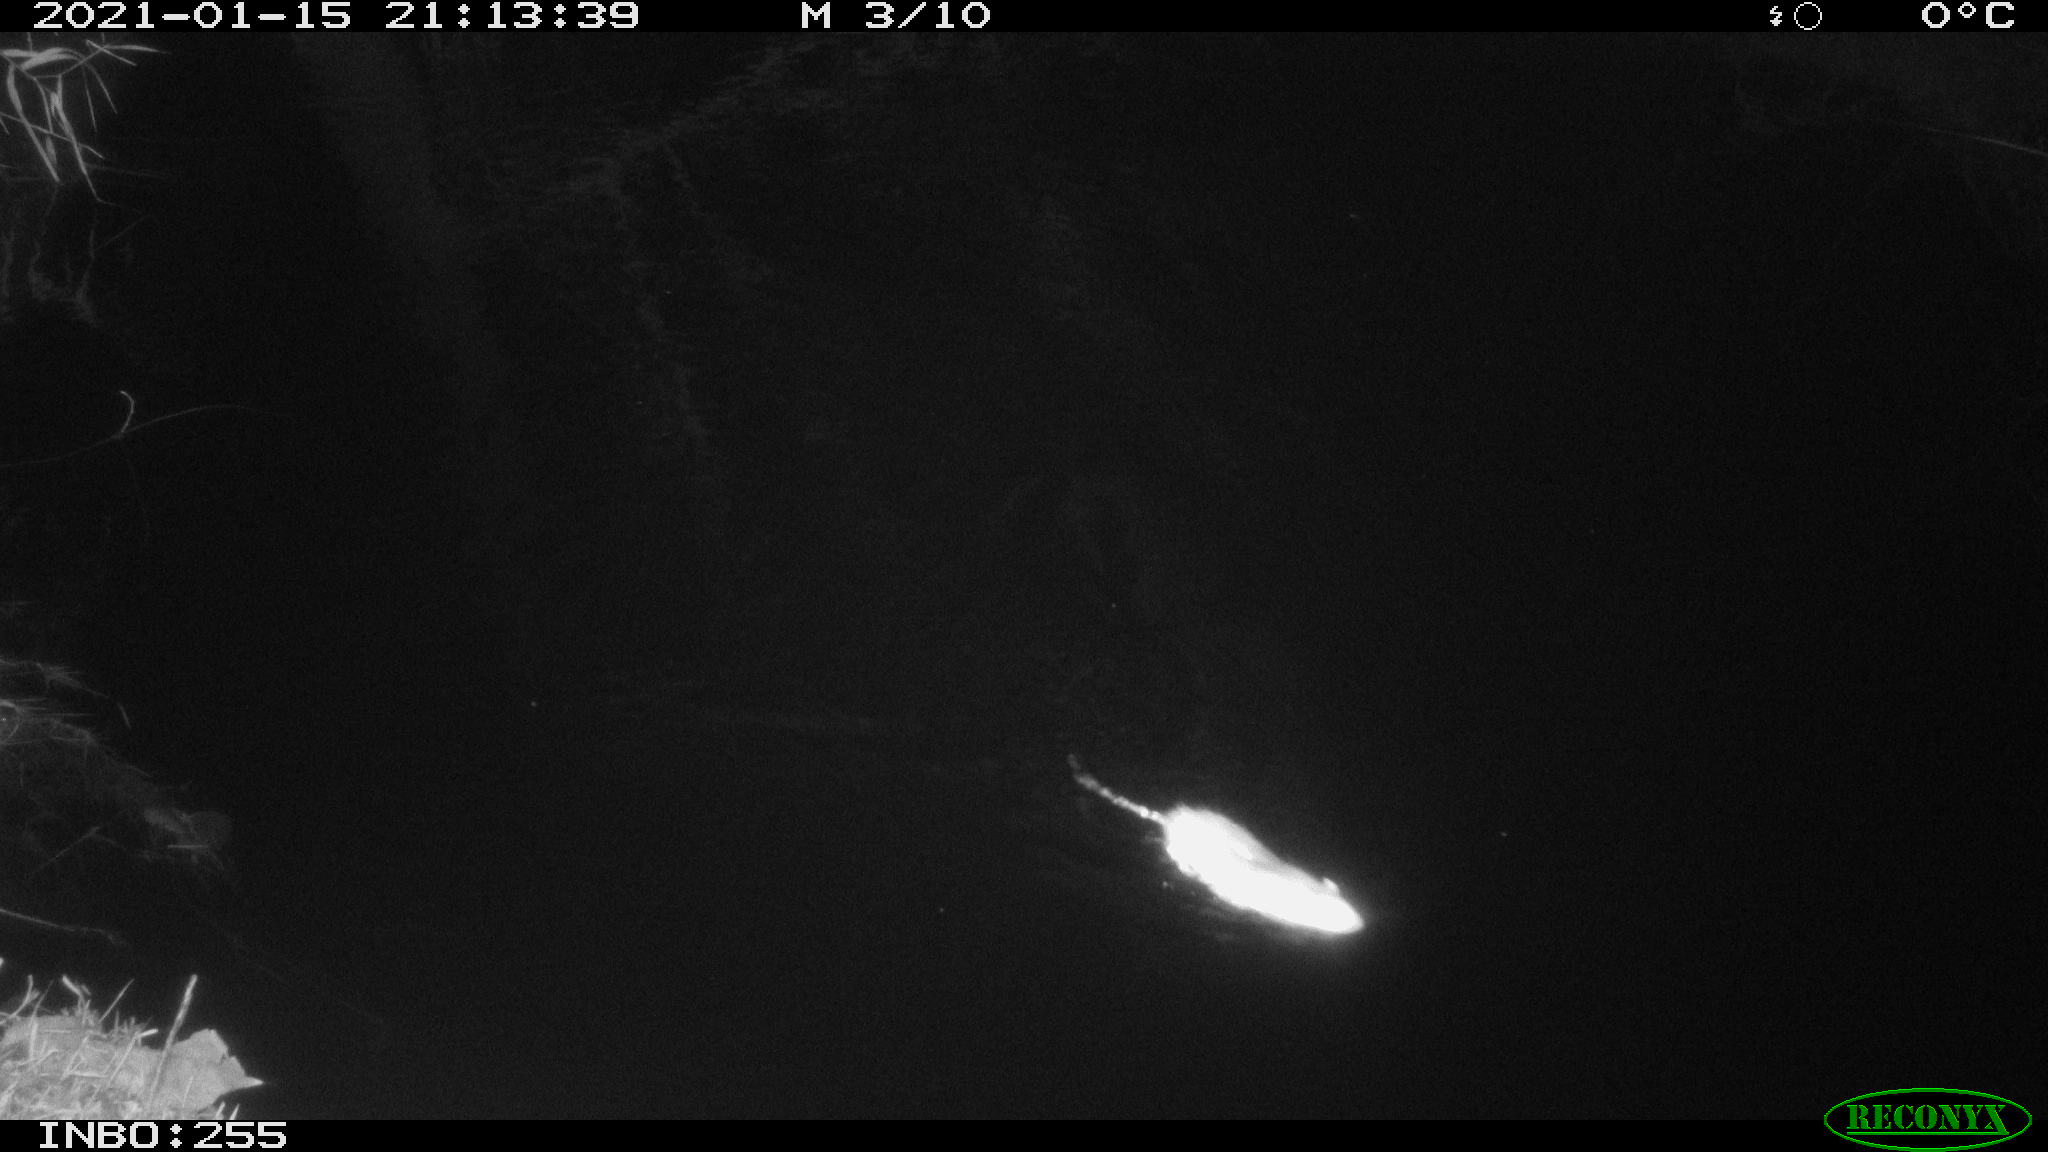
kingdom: Animalia
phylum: Chordata
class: Mammalia
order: Rodentia
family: Muridae
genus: Rattus
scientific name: Rattus norvegicus
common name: Brown rat
